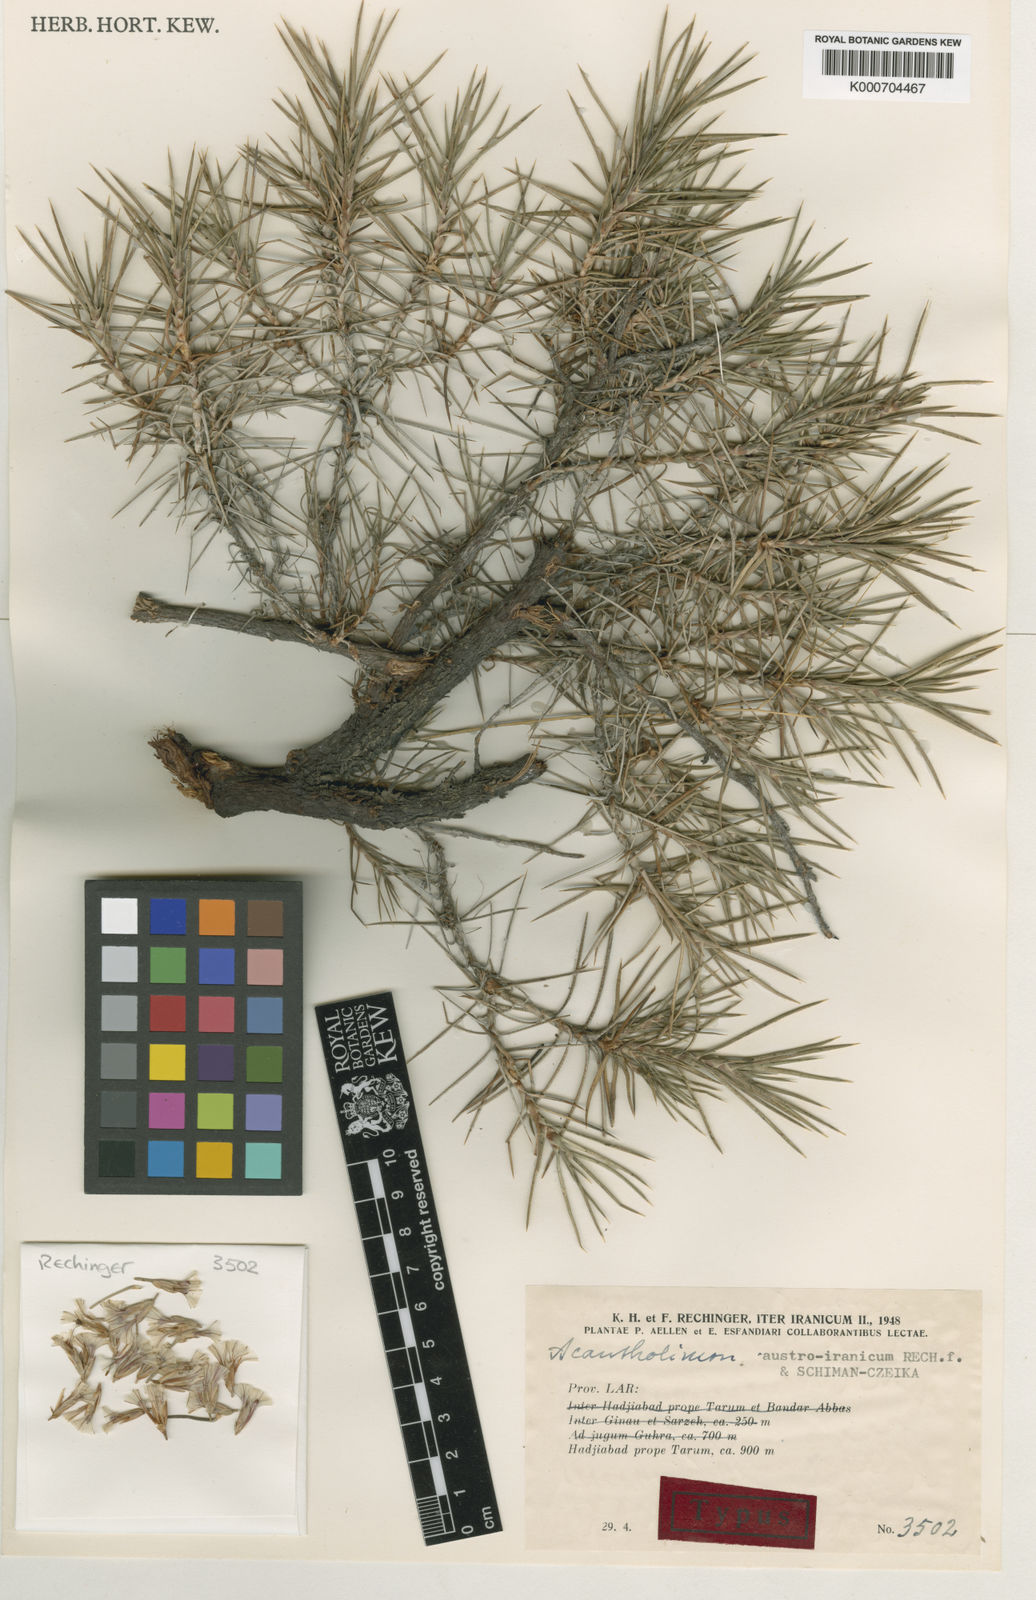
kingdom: Plantae
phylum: Tracheophyta
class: Magnoliopsida
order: Caryophyllales
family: Plumbaginaceae
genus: Acantholimon
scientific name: Acantholimon austroiranicum
